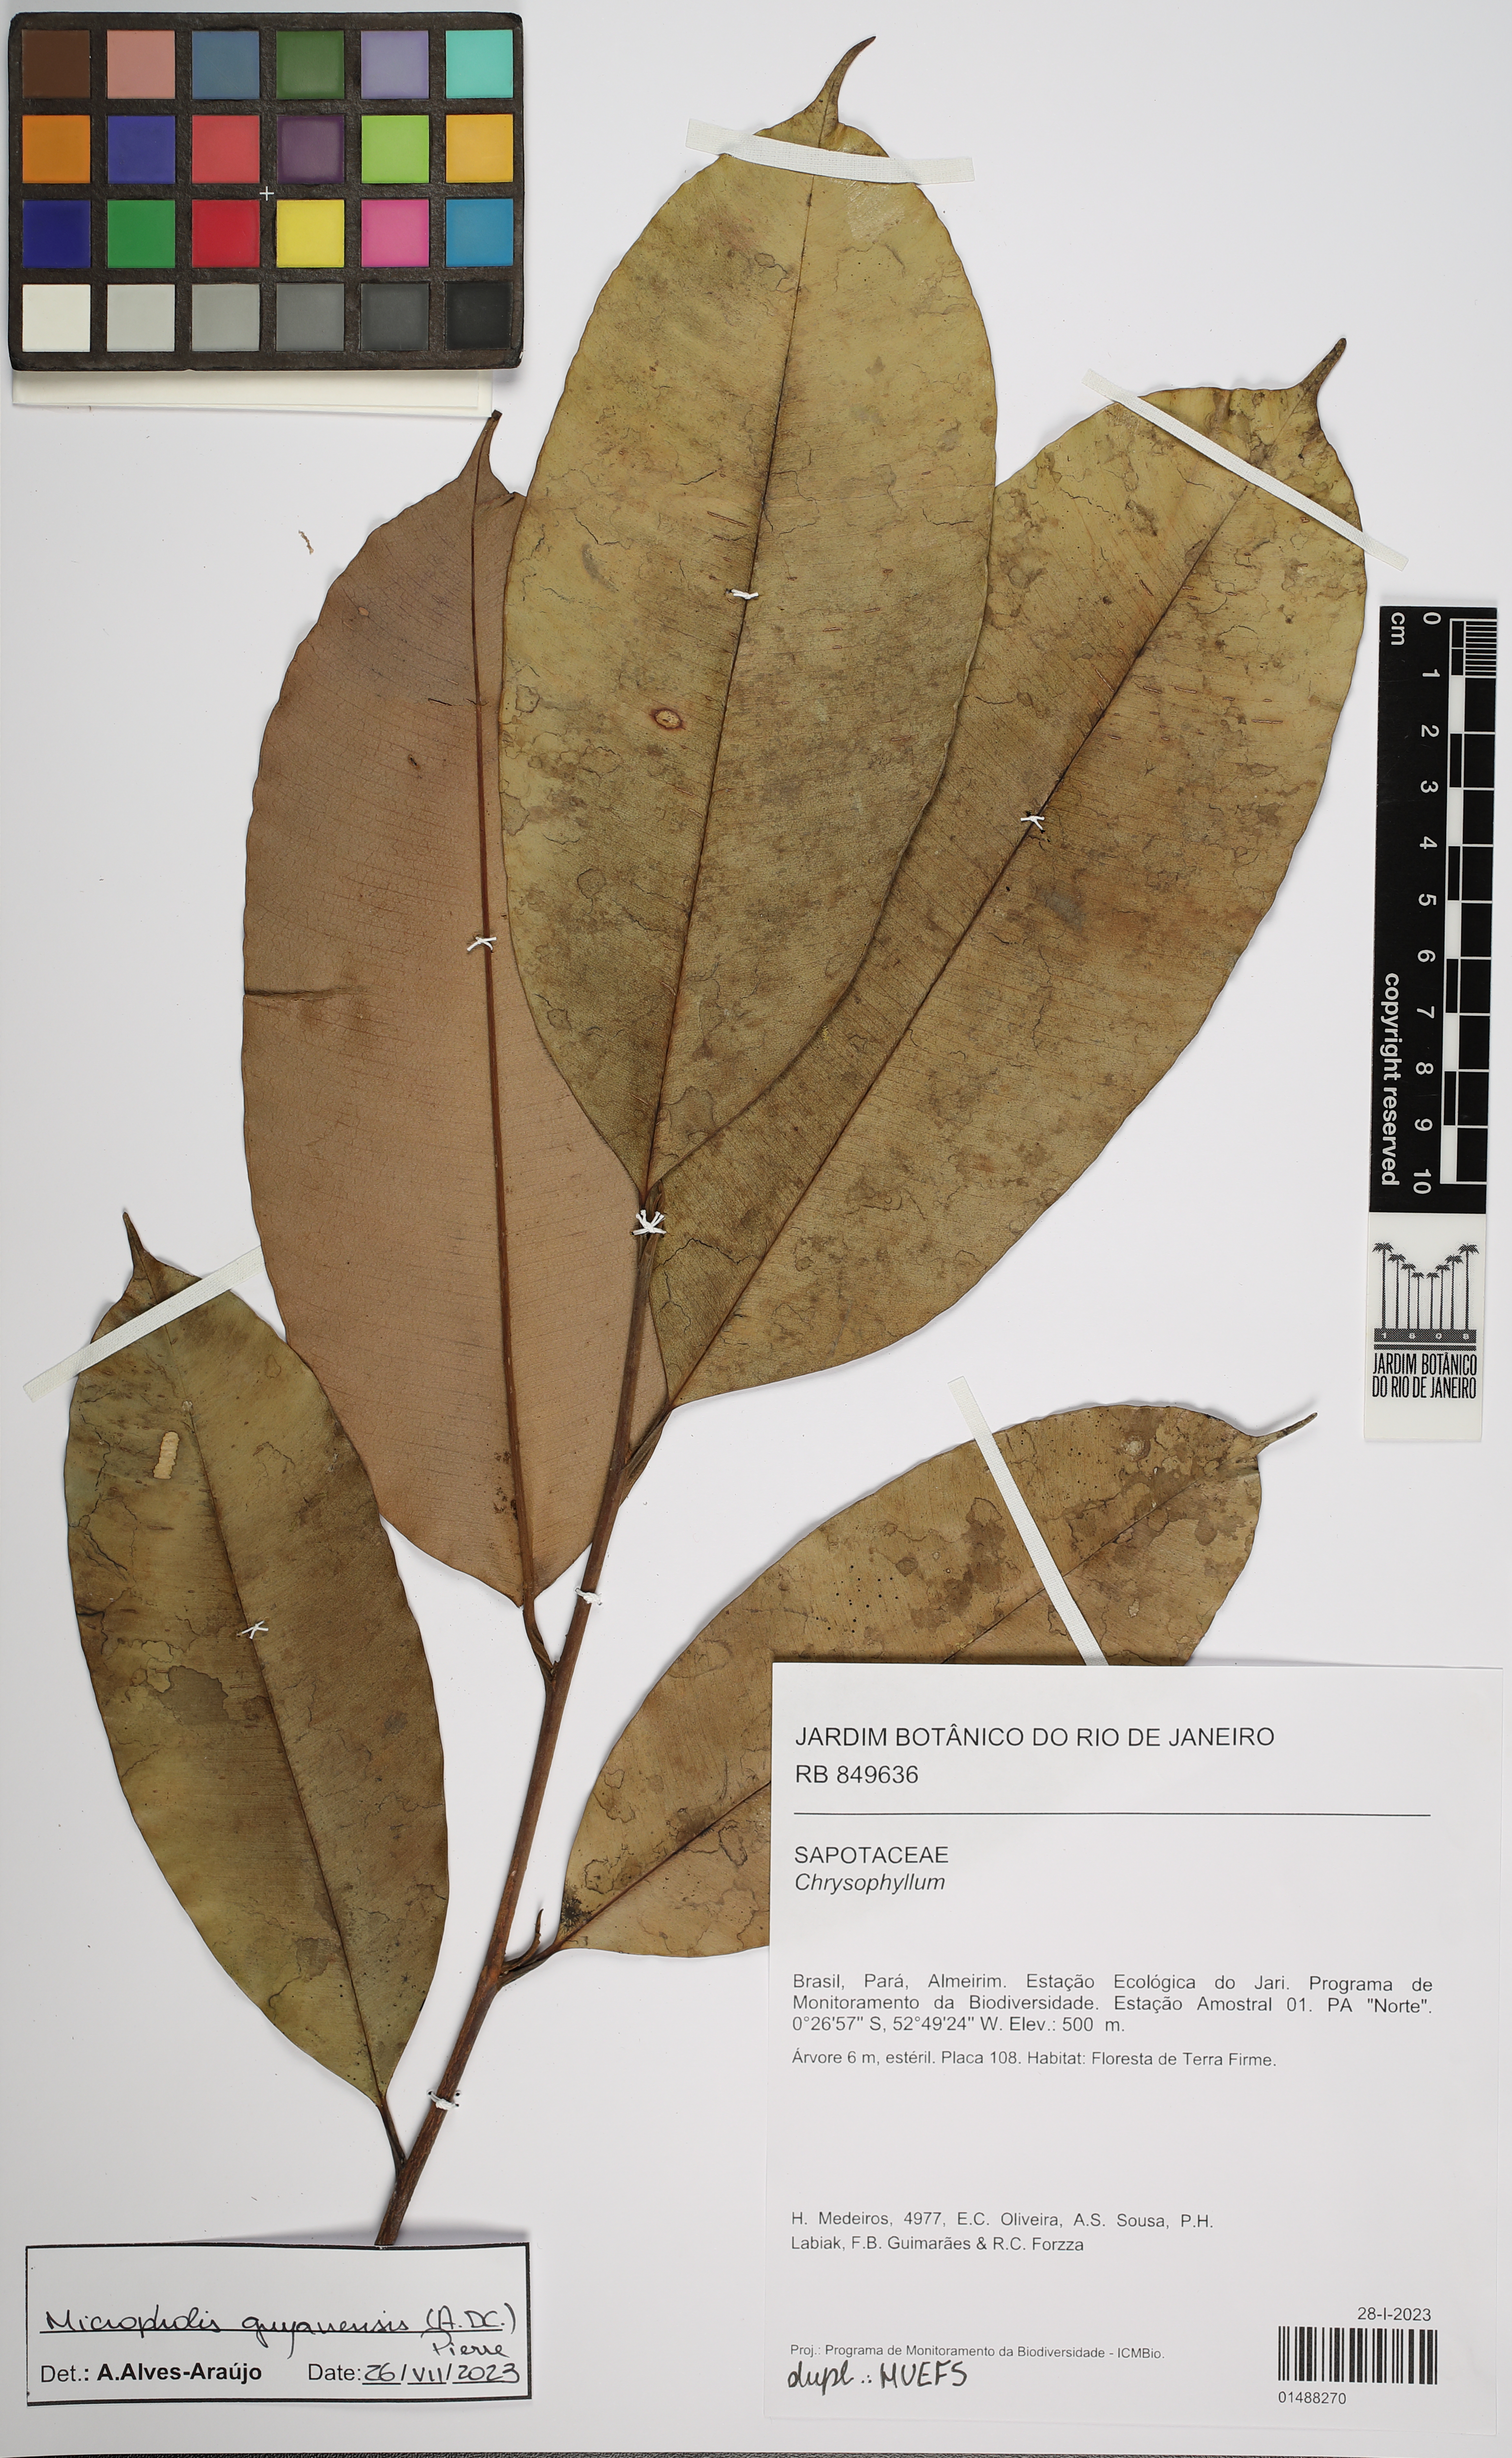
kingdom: Plantae
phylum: Tracheophyta
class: Magnoliopsida
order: Ericales
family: Sapotaceae
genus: Micropholis
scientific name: Micropholis guyanensis
